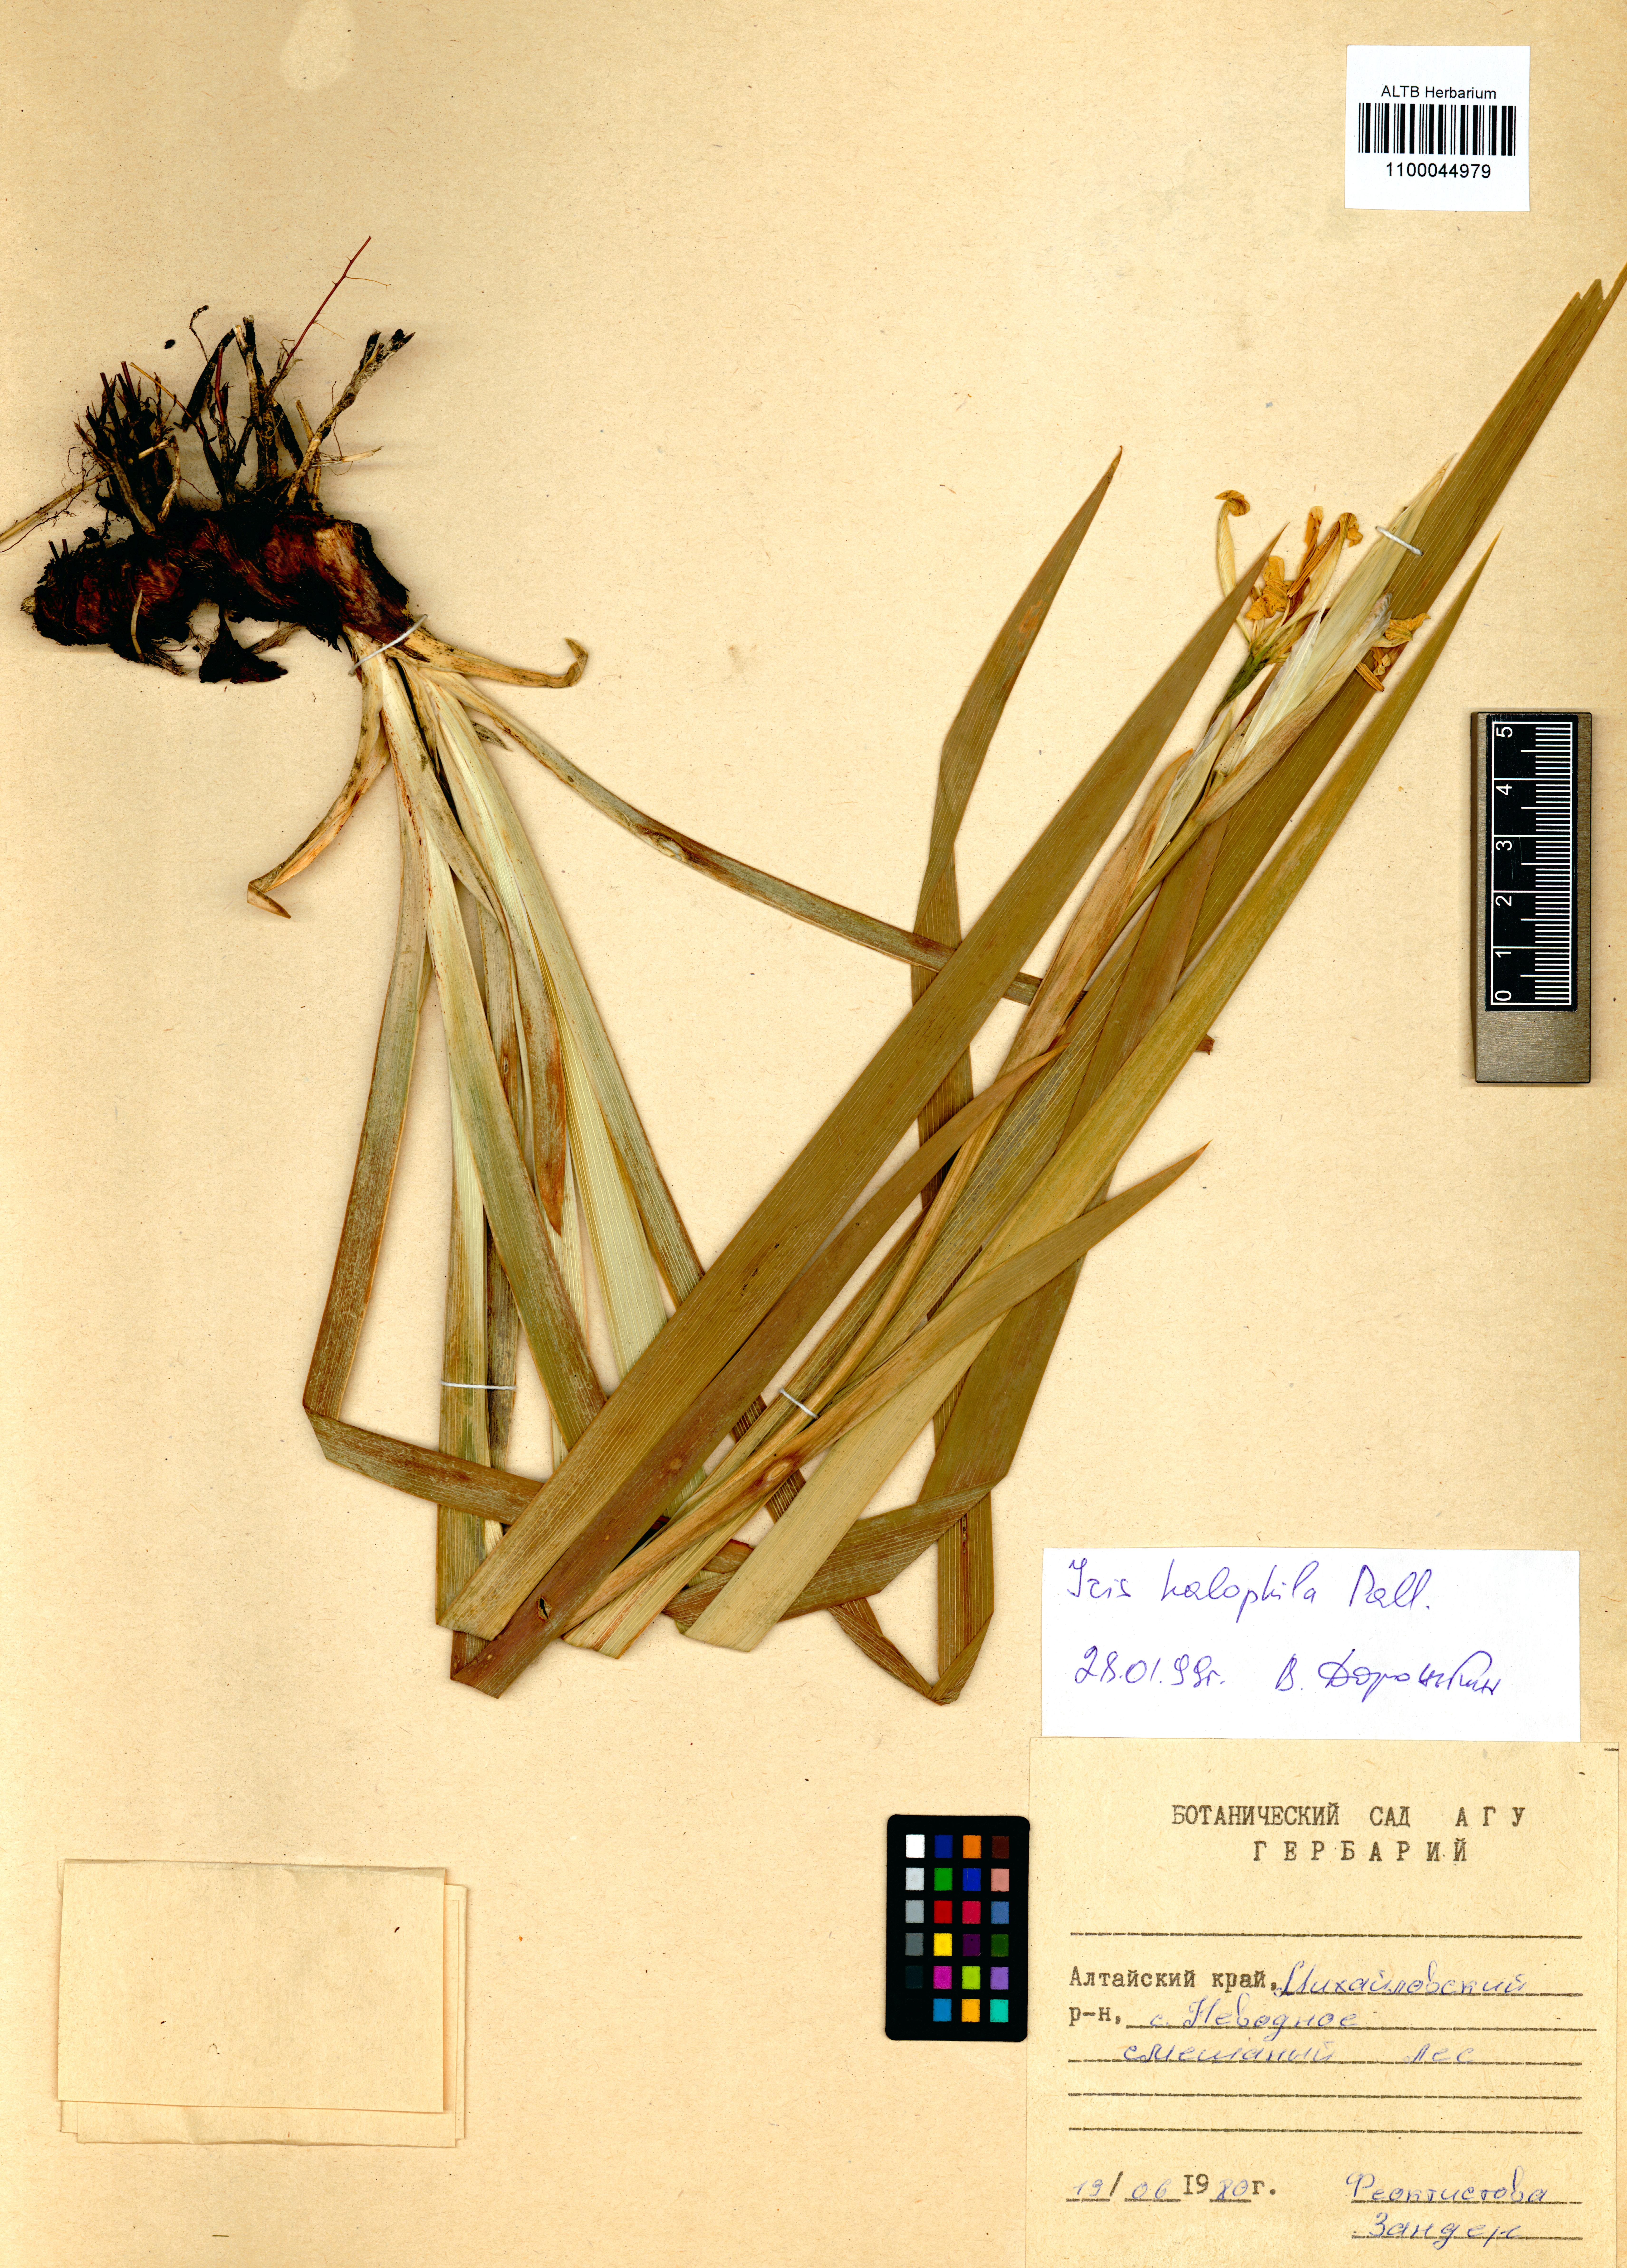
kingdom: Plantae
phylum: Tracheophyta
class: Liliopsida
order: Asparagales
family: Iridaceae
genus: Iris
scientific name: Iris halophila
